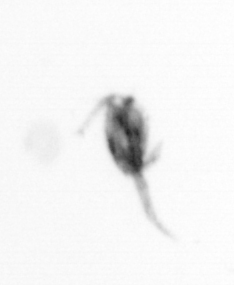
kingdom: Animalia
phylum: Arthropoda
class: Copepoda
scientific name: Copepoda
